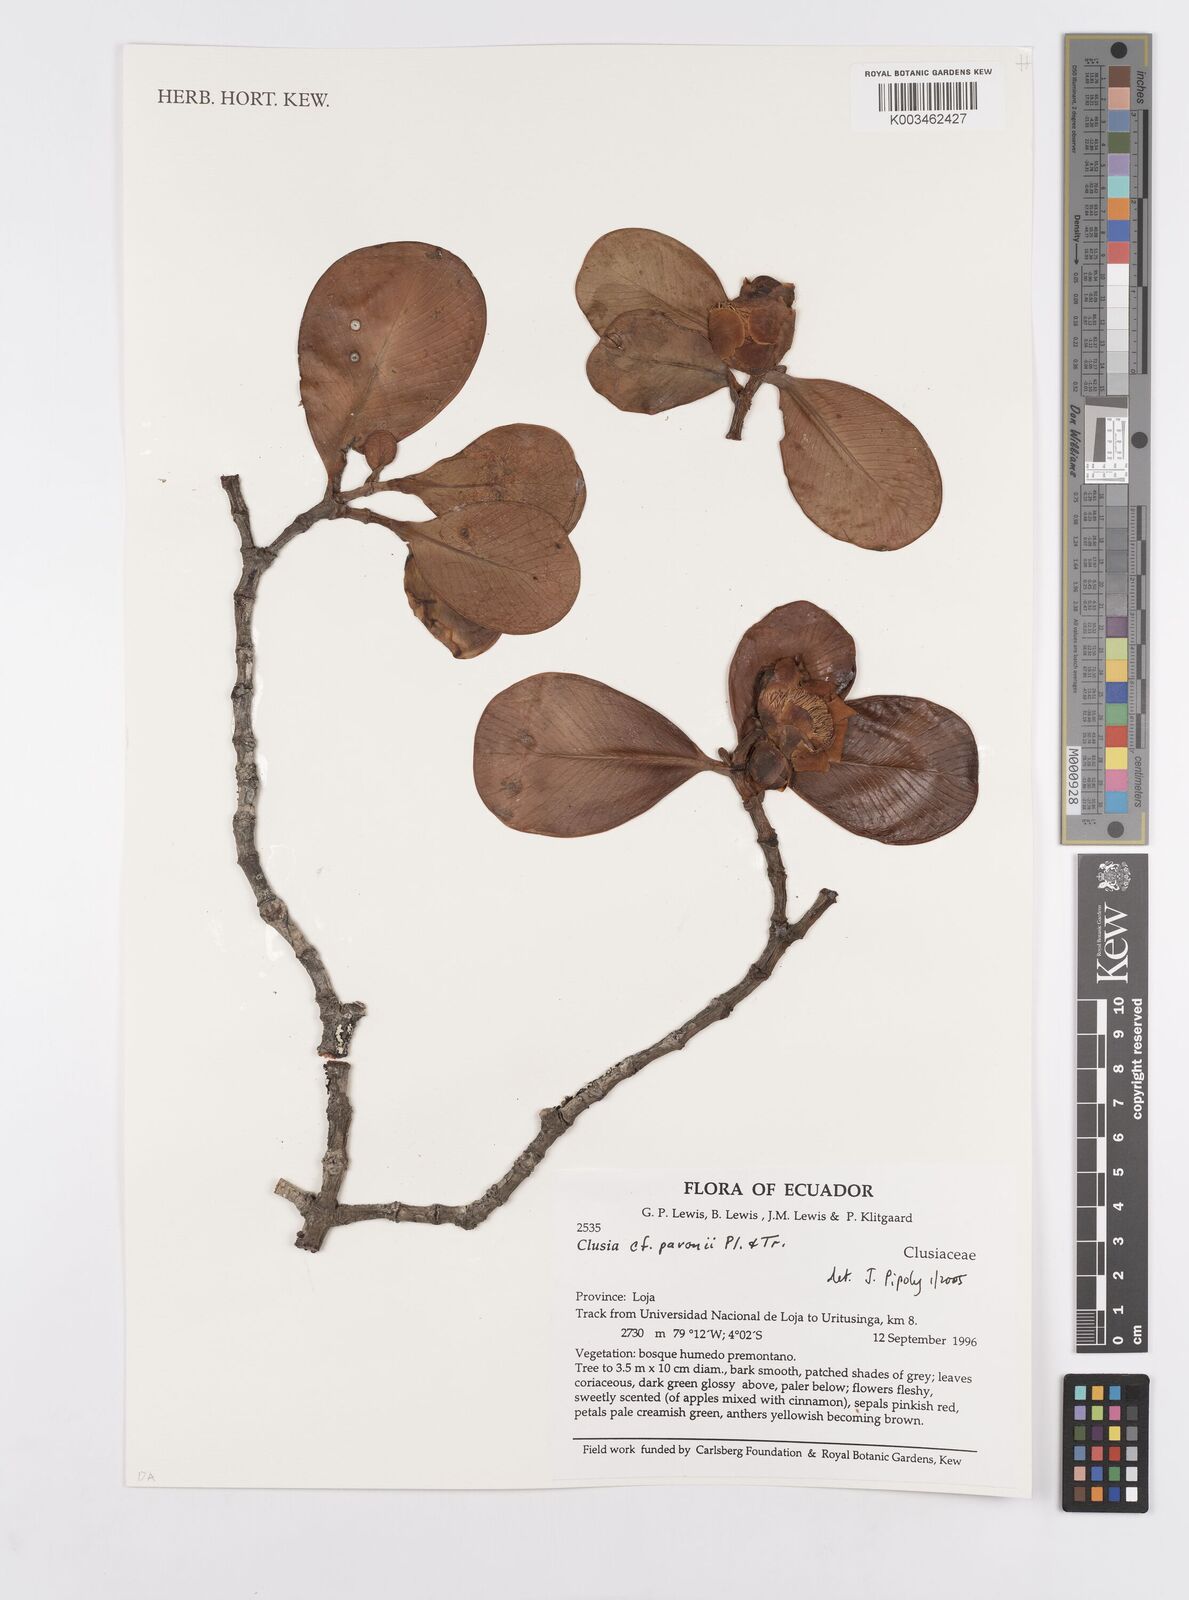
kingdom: Plantae
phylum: Tracheophyta
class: Magnoliopsida
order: Malpighiales
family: Clusiaceae
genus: Clusia
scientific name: Clusia pavonii
